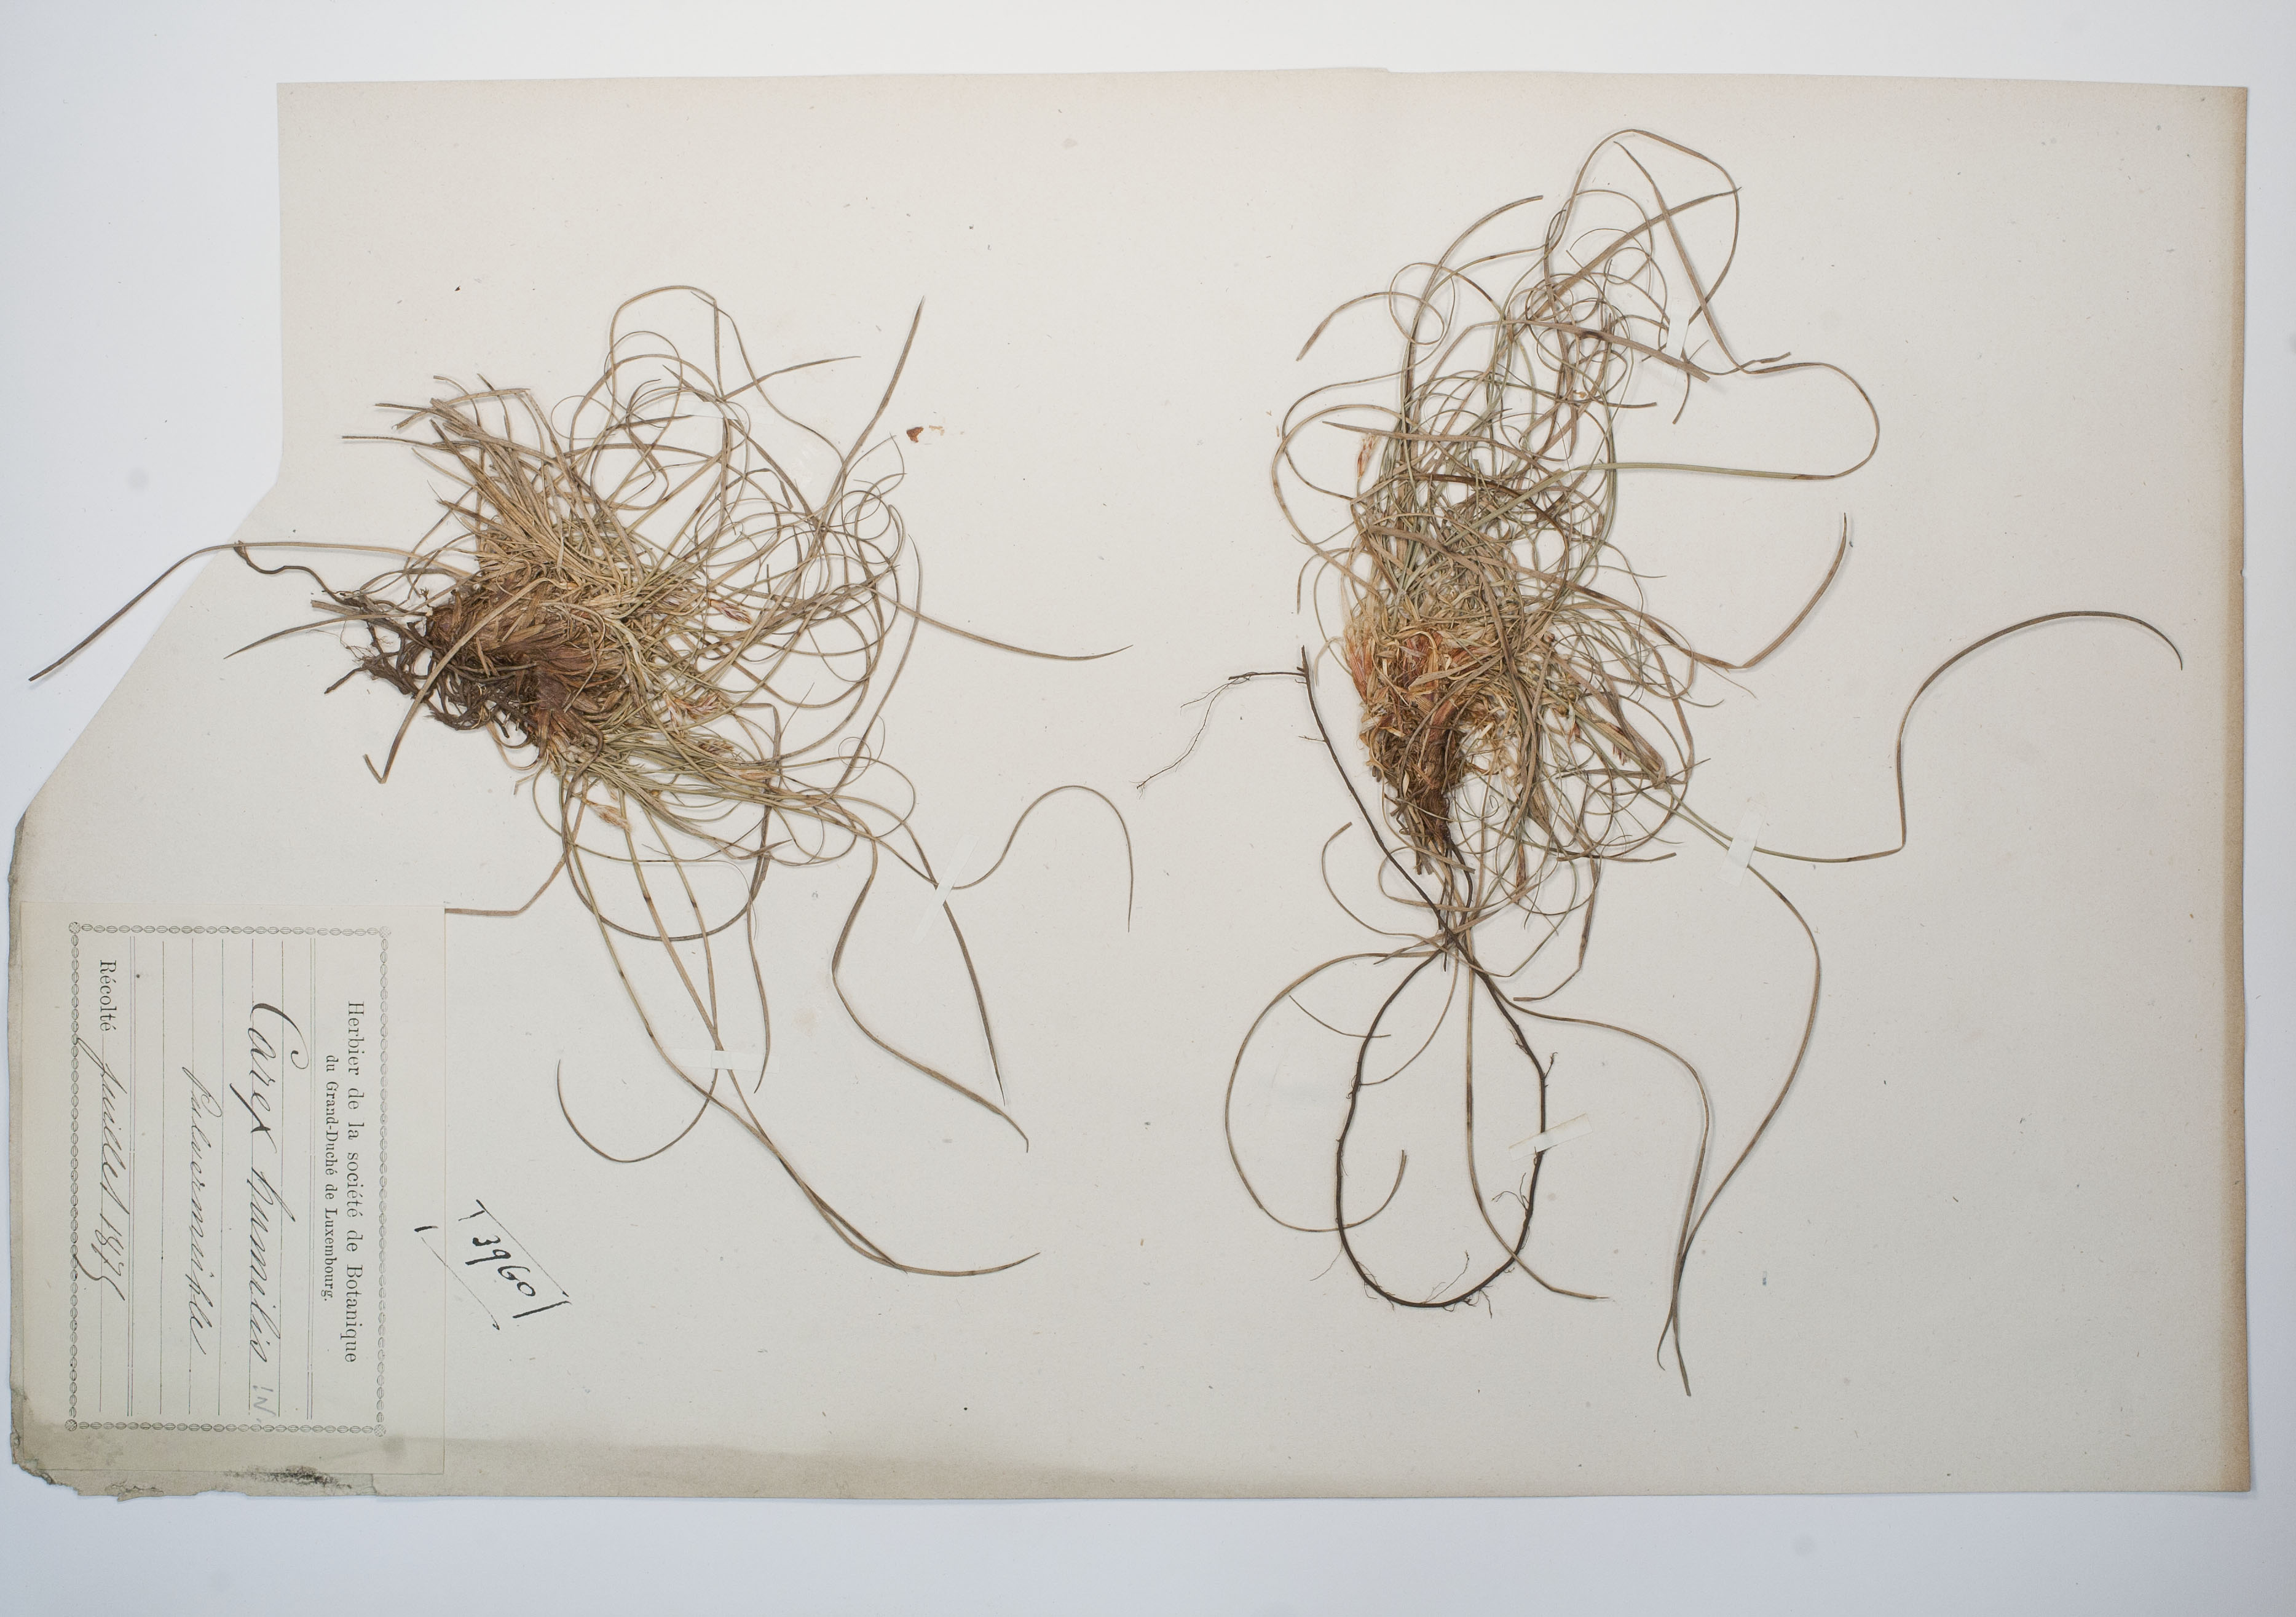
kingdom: Plantae
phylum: Tracheophyta
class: Liliopsida
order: Poales
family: Cyperaceae
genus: Carex
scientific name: Carex humilis
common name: Dwarf sedge
